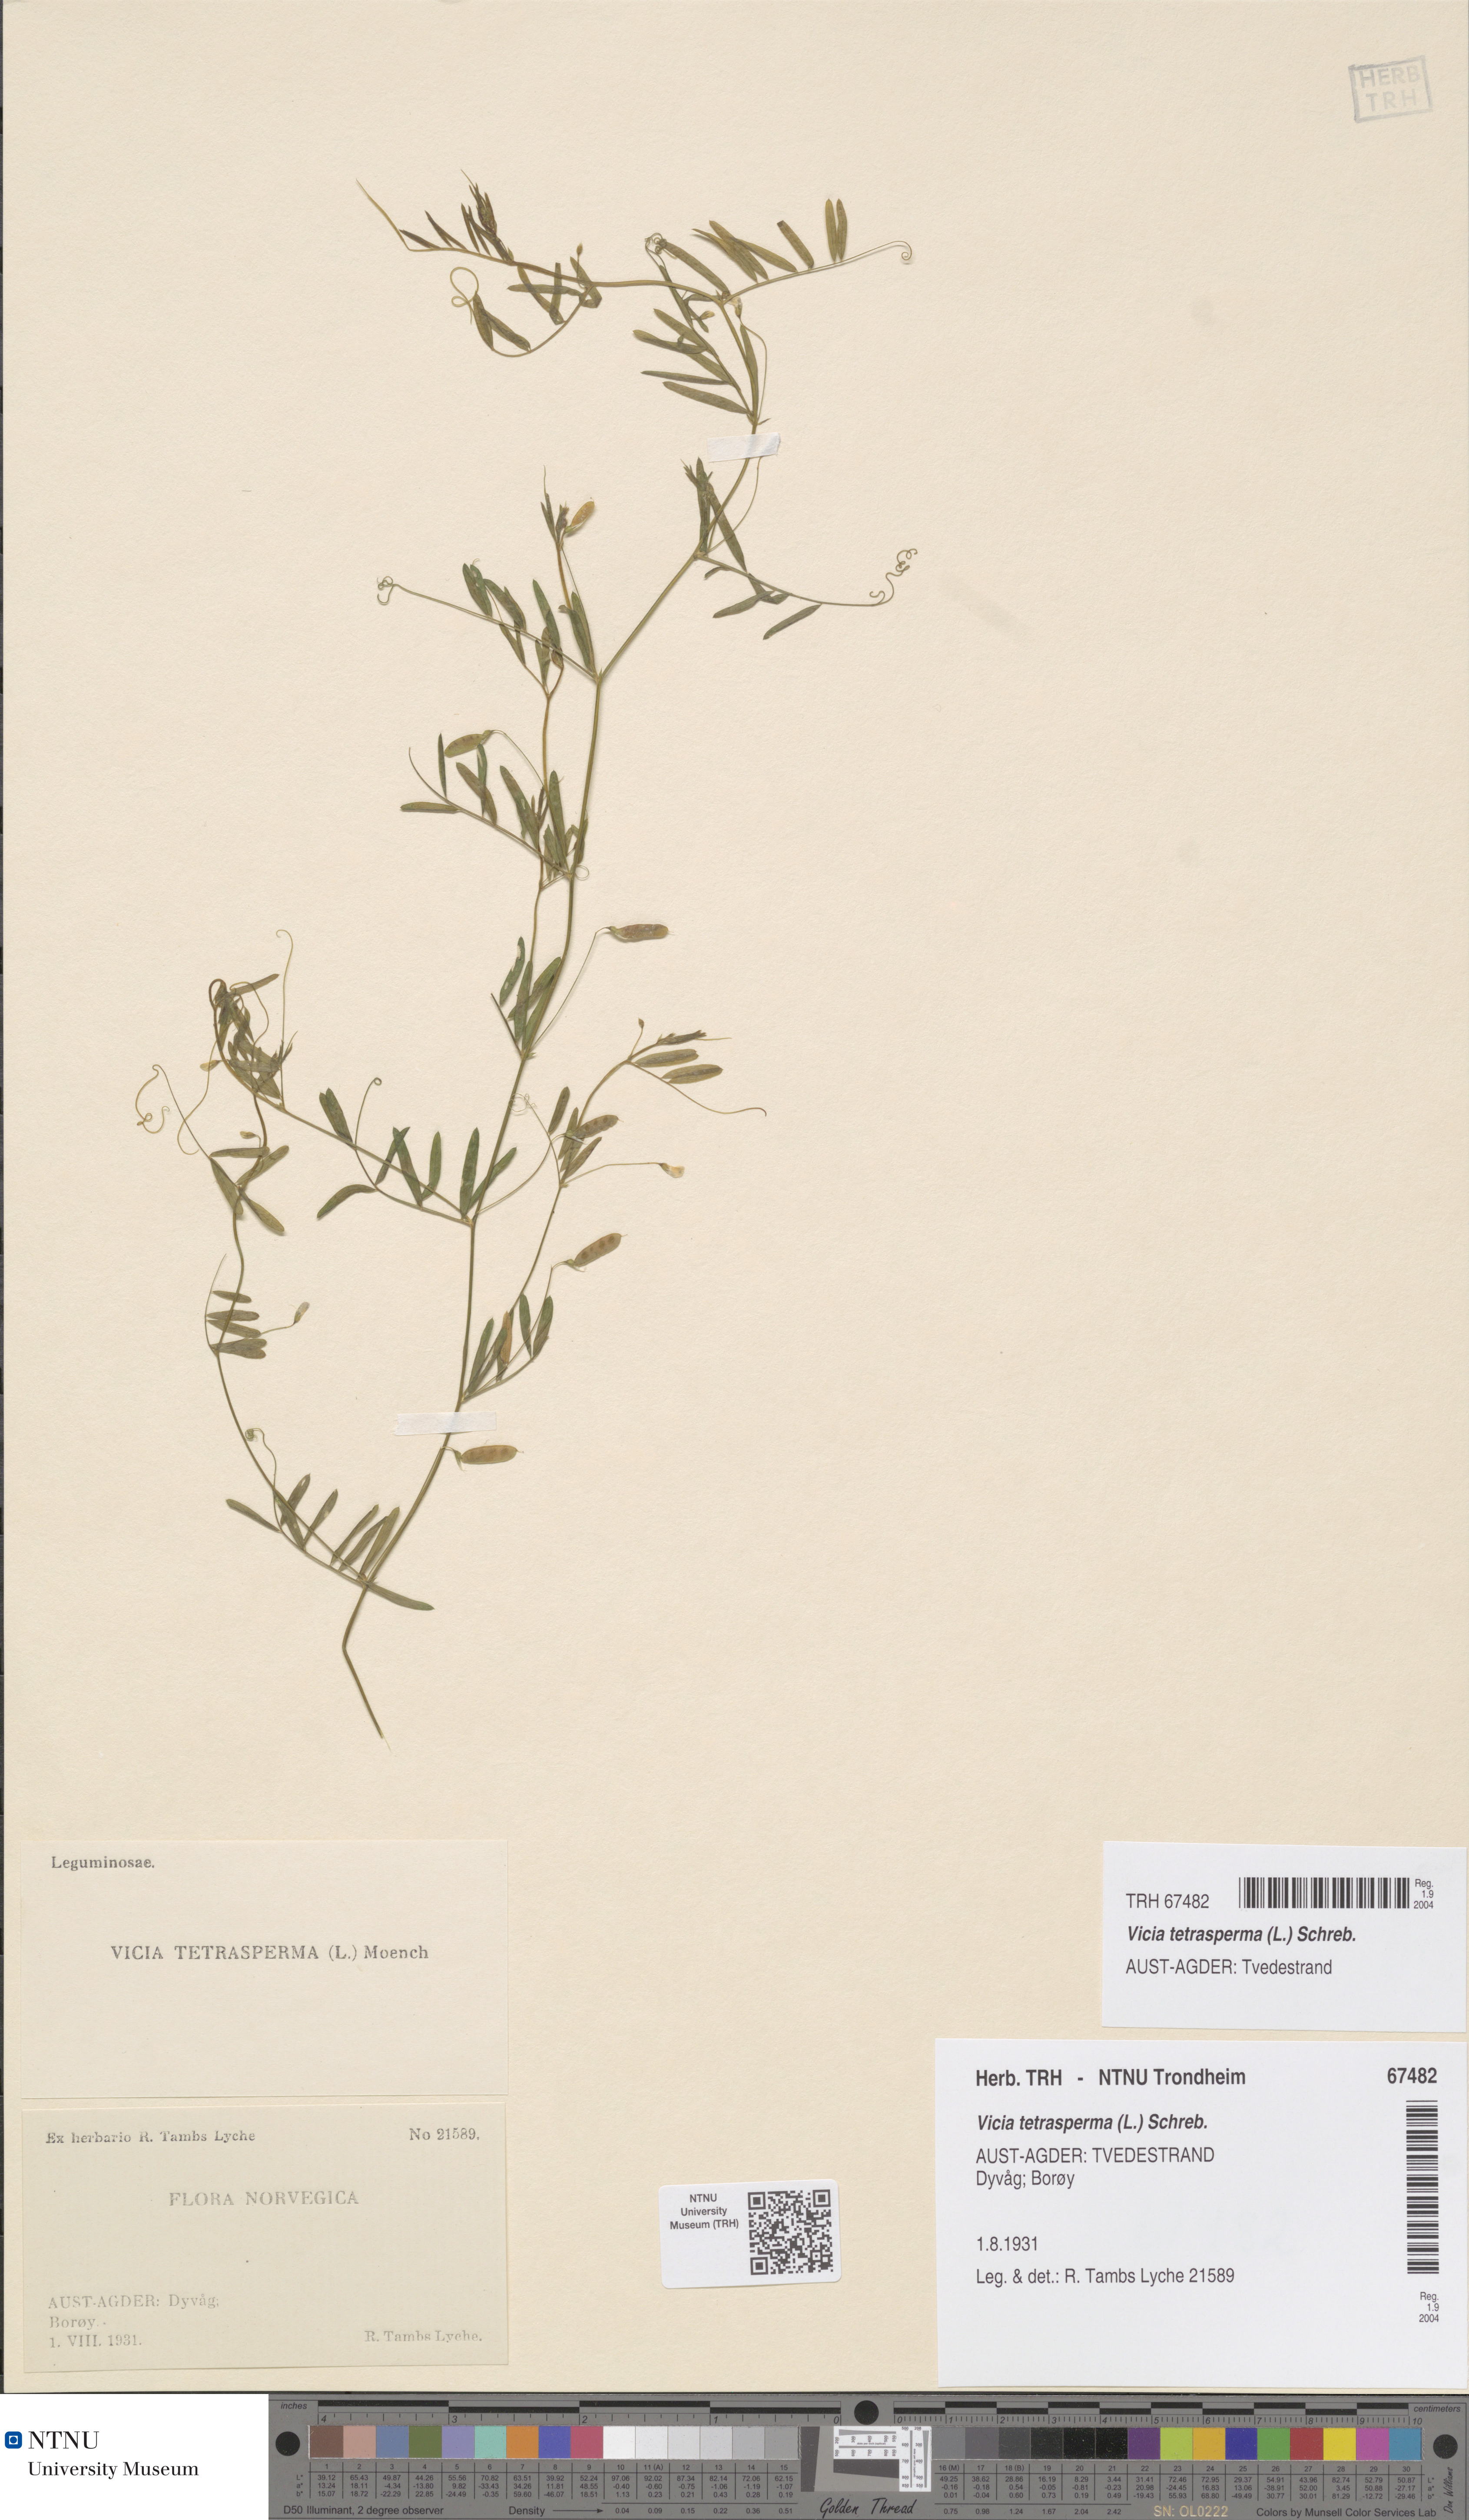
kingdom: Plantae
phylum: Tracheophyta
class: Magnoliopsida
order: Fabales
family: Fabaceae
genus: Vicia
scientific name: Vicia tetrasperma
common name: Smooth tare
